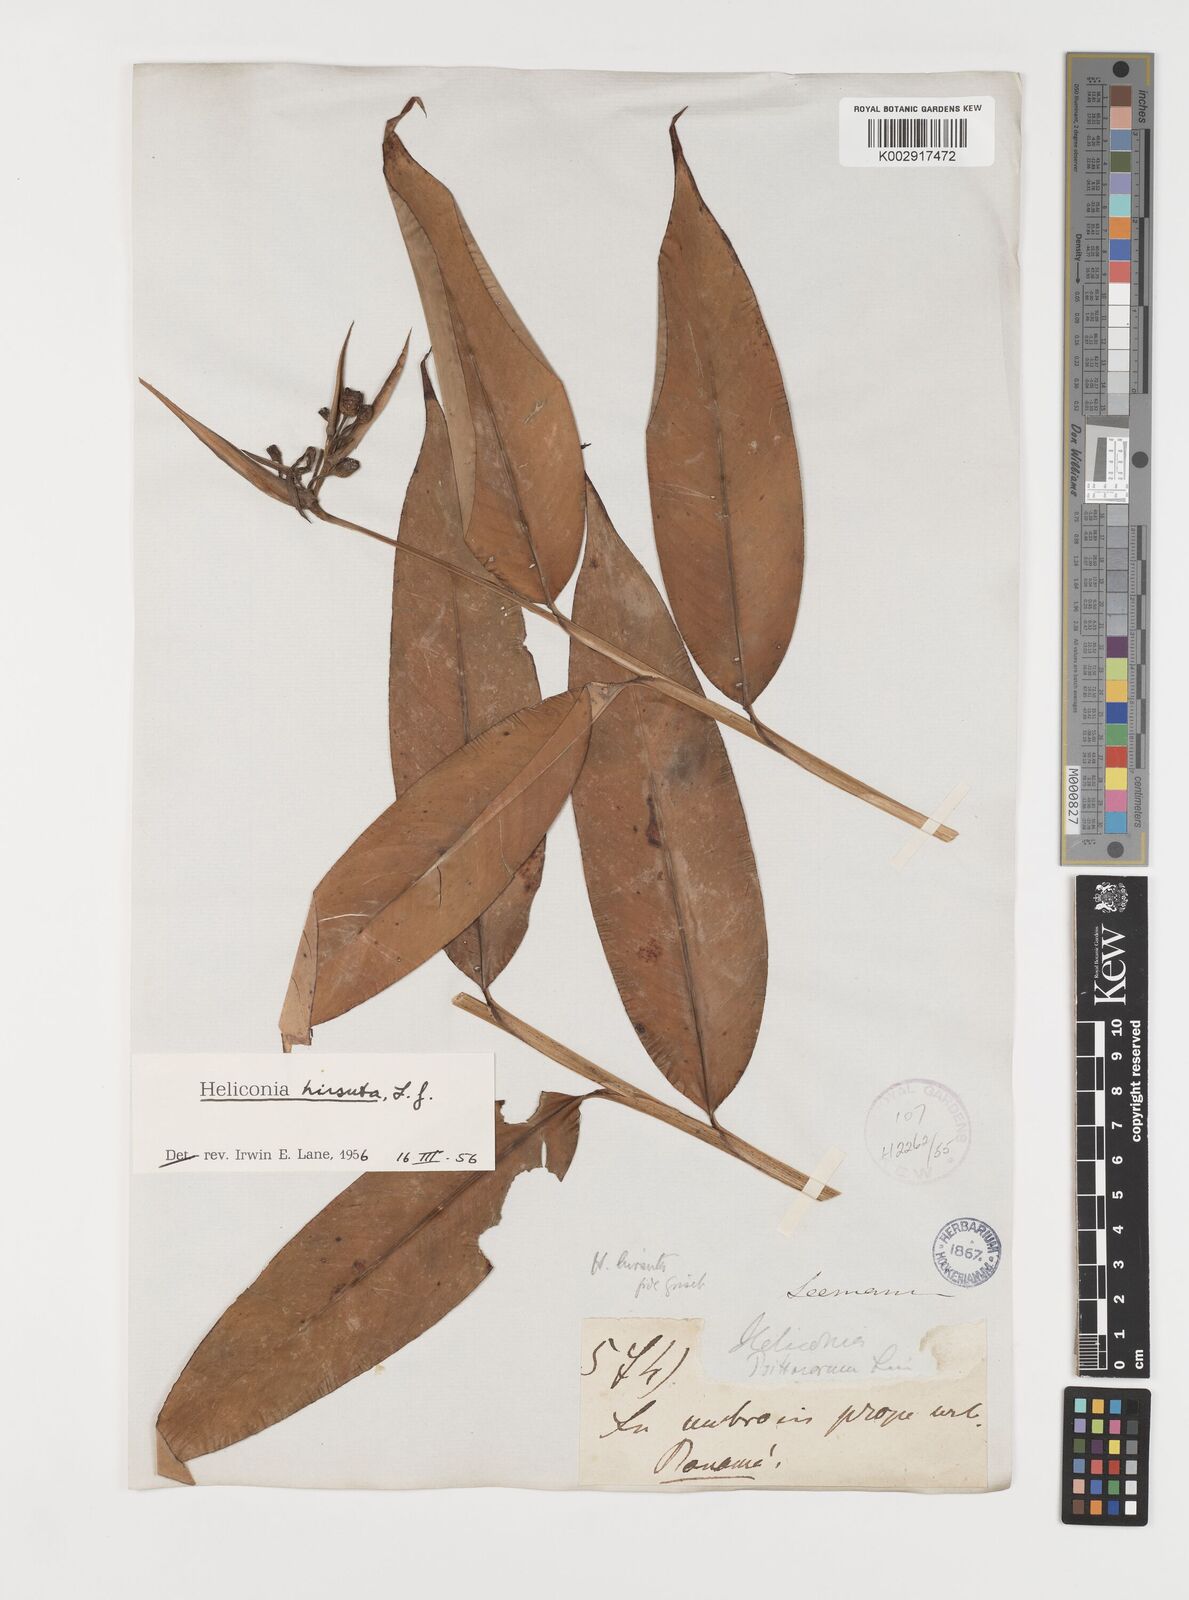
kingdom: Plantae
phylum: Tracheophyta
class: Liliopsida
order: Zingiberales
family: Heliconiaceae
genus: Heliconia
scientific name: Heliconia hirsuta
